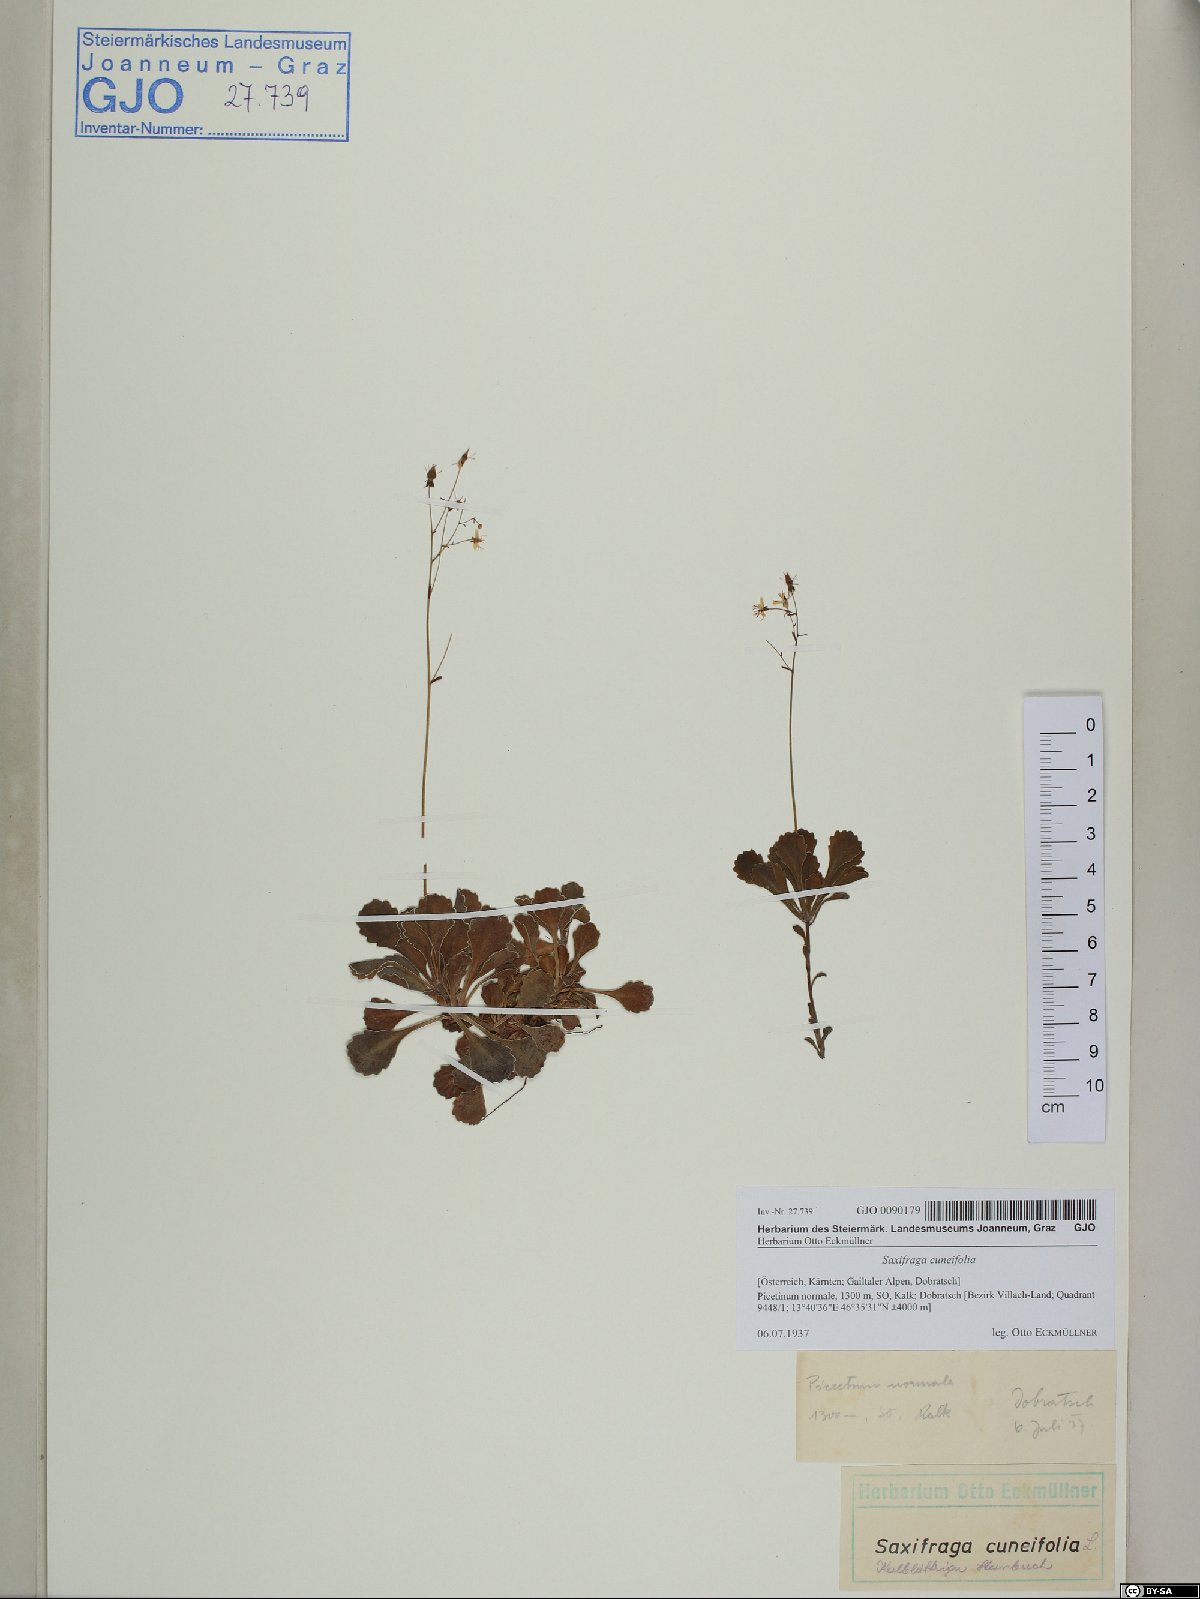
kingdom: Plantae
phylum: Tracheophyta
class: Magnoliopsida
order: Saxifragales
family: Saxifragaceae
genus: Saxifraga
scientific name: Saxifraga cuneifolia
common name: Lesser londonpride
